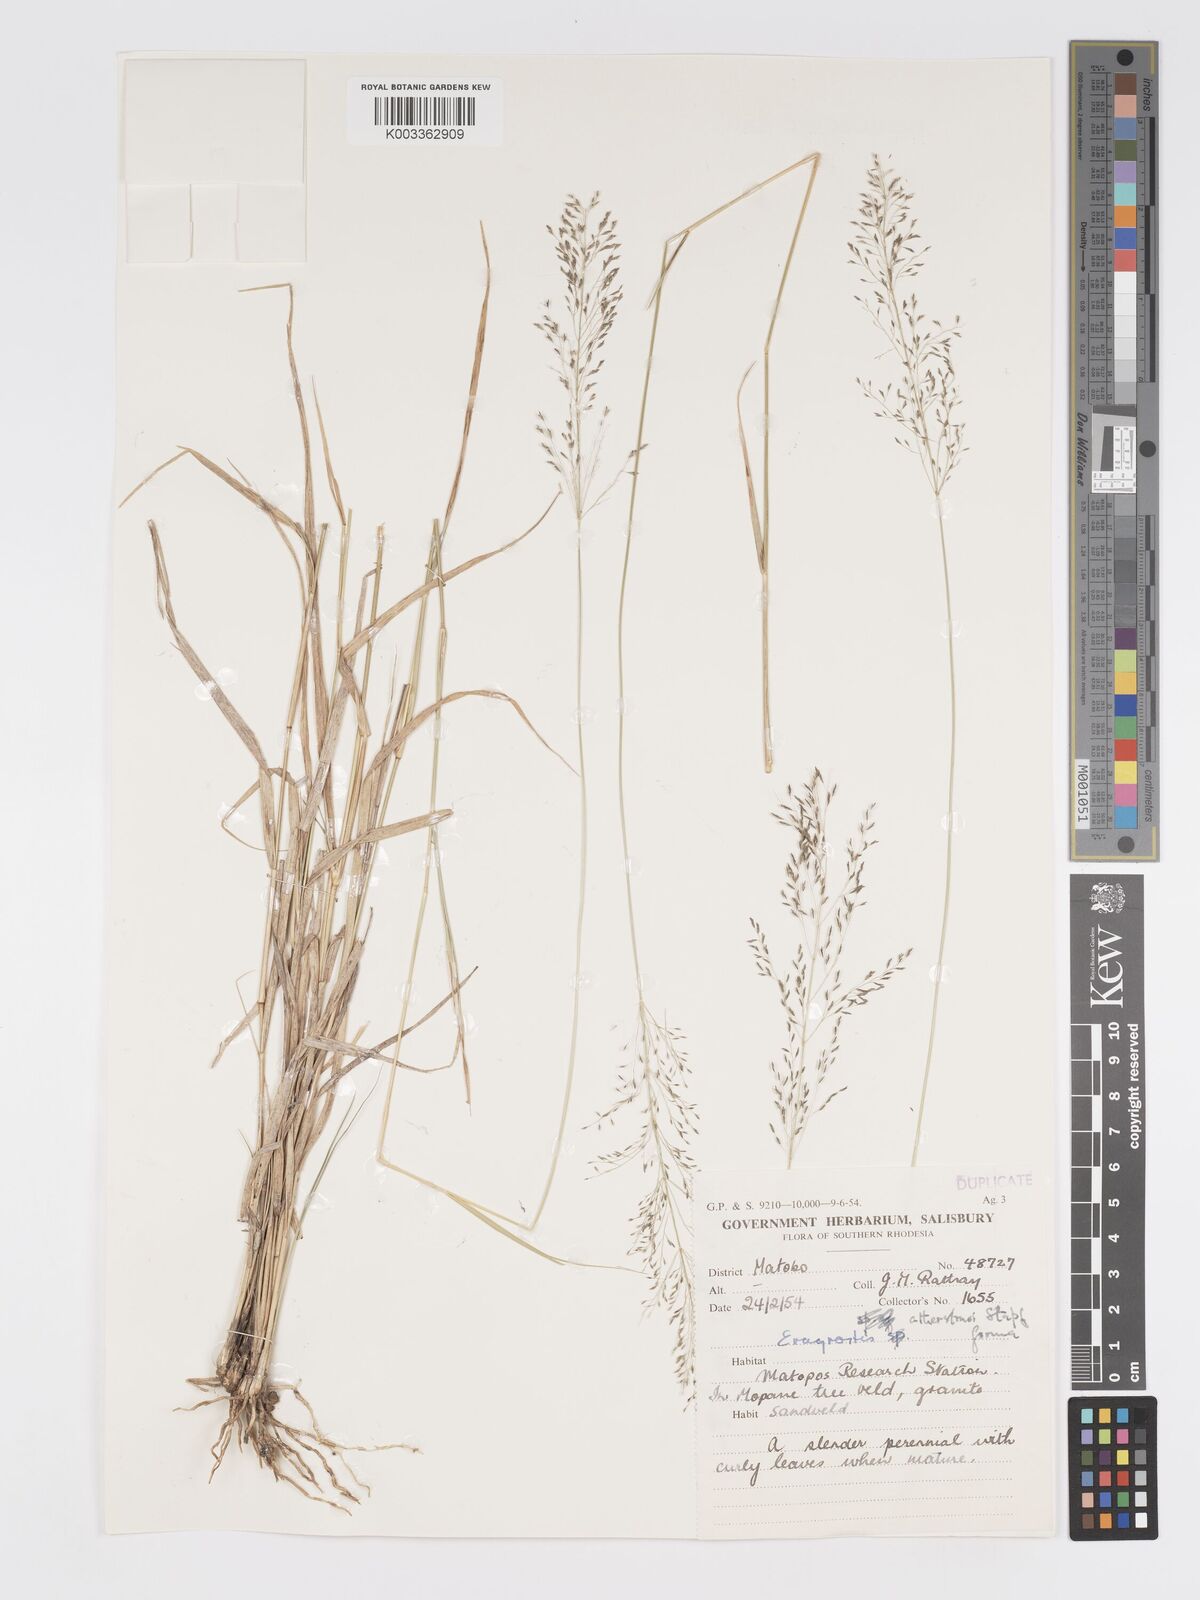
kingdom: Plantae
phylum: Tracheophyta
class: Liliopsida
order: Poales
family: Poaceae
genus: Eragrostis
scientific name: Eragrostis cylindriflora
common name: Cylinderflower lovegrass
